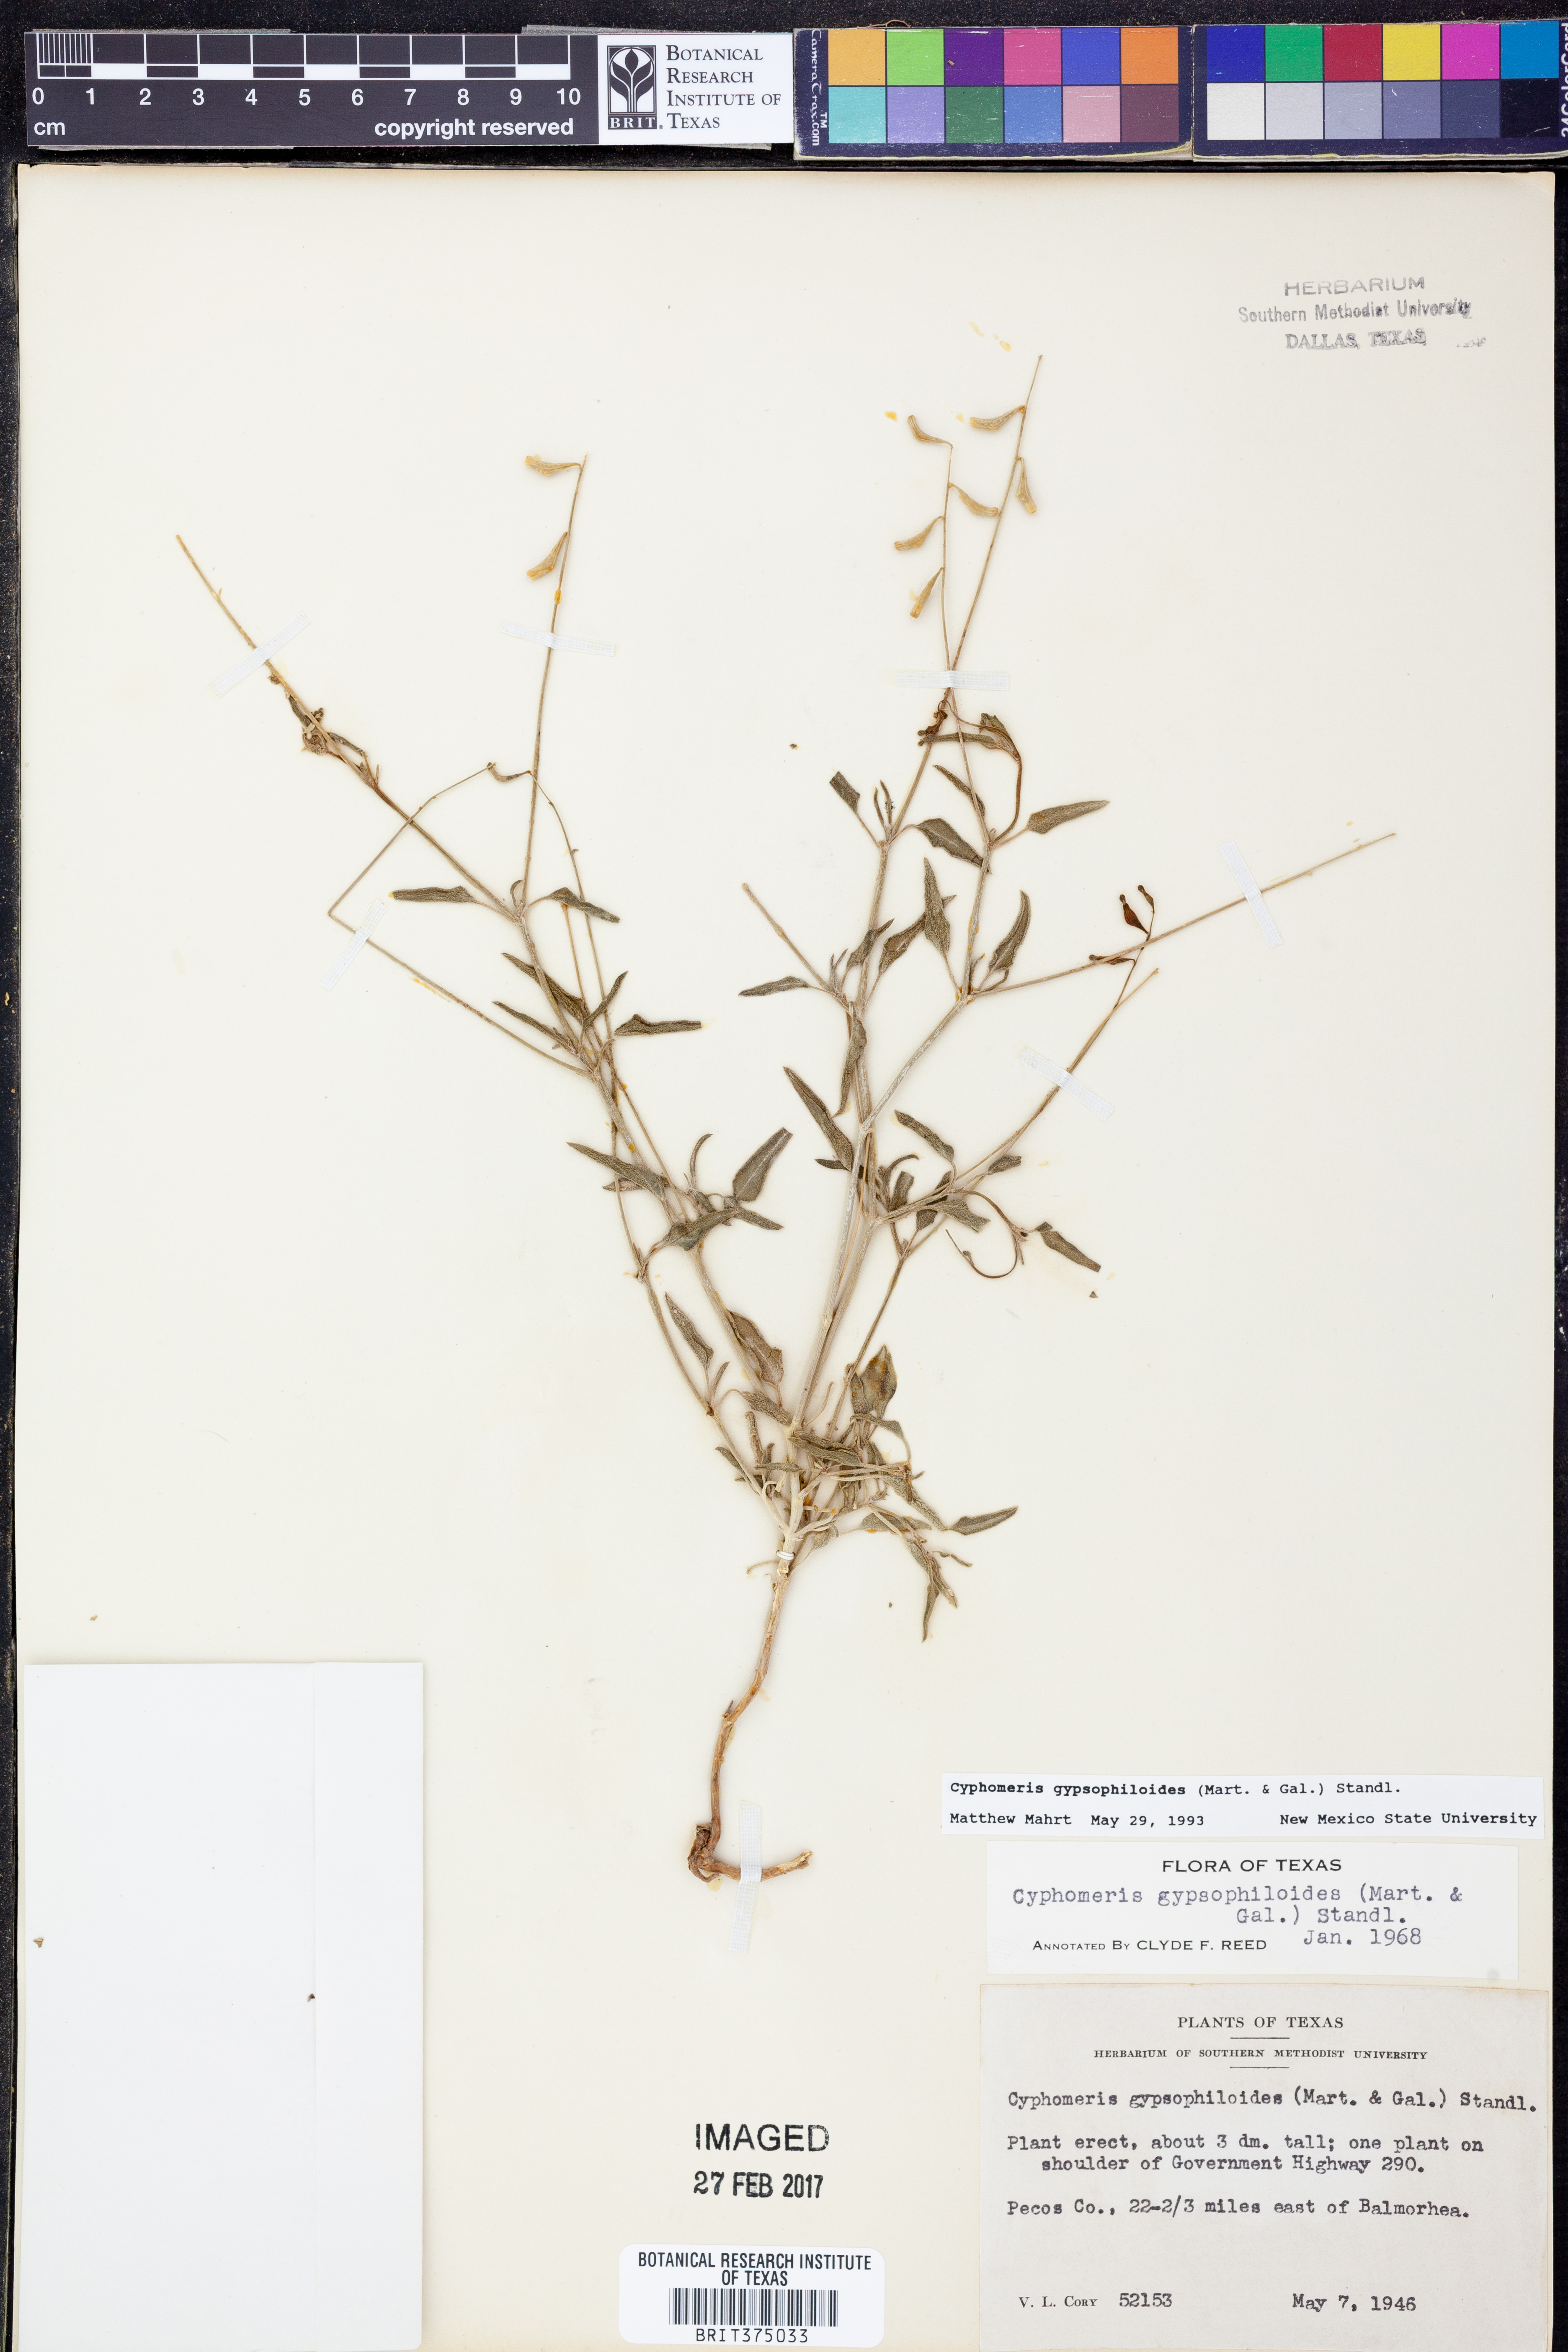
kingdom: Plantae
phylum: Tracheophyta
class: Magnoliopsida
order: Caryophyllales
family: Nyctaginaceae
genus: Cyphomeris
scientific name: Cyphomeris gypsophiloides
